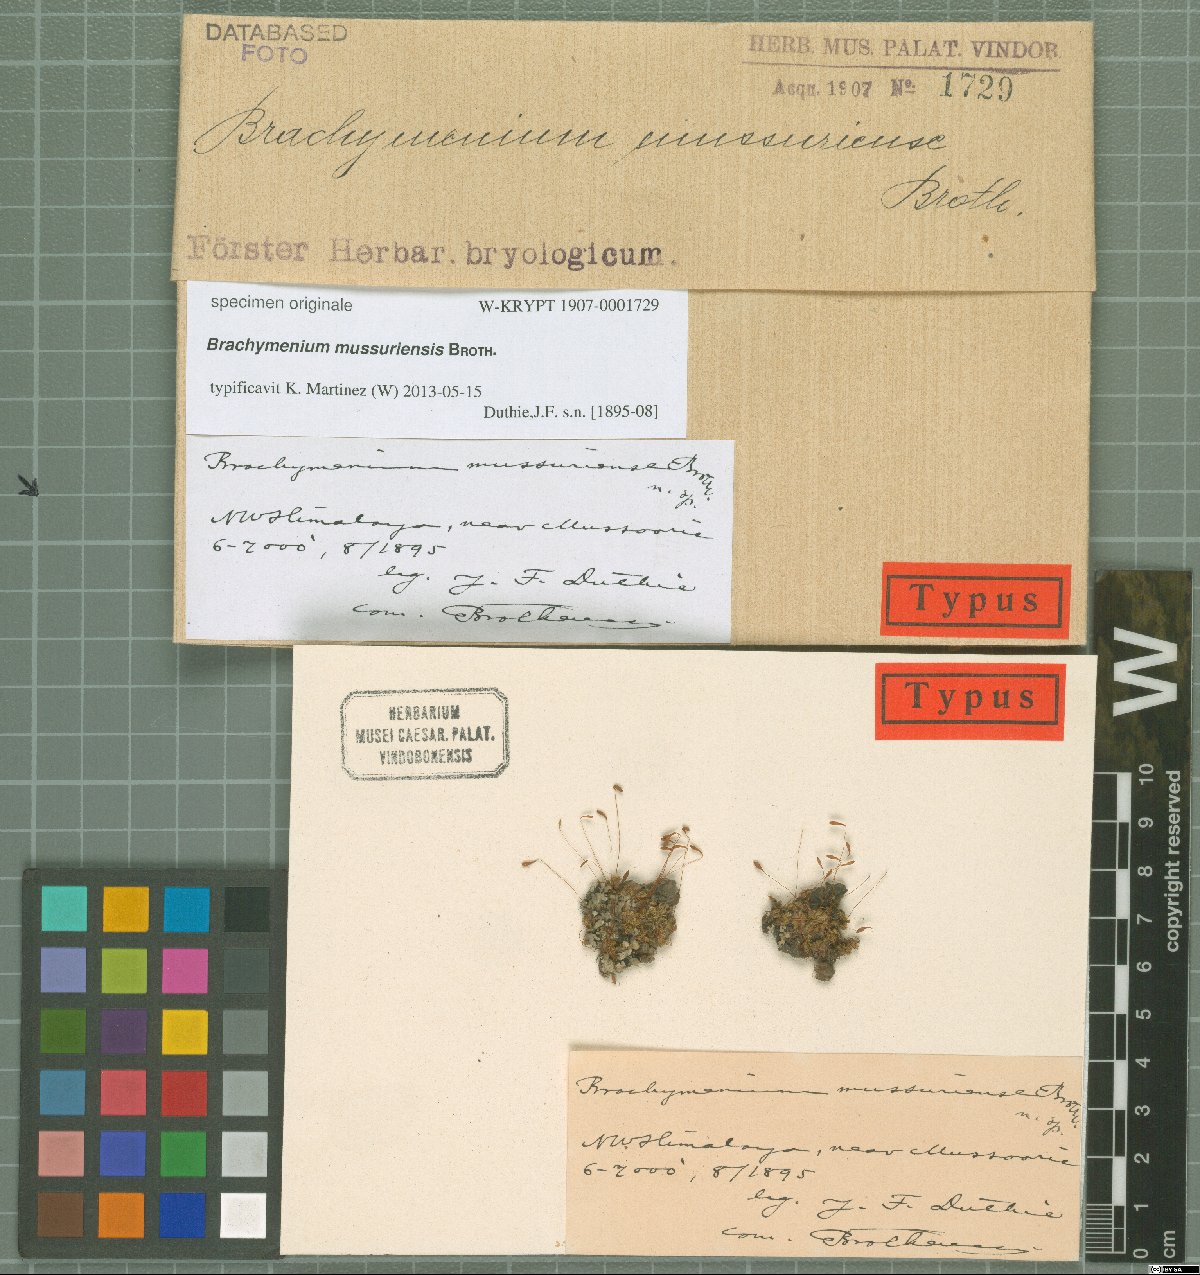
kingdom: Plantae
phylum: Bryophyta
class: Bryopsida
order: Bryales
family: Bryaceae
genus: Brachymenium
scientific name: Brachymenium
